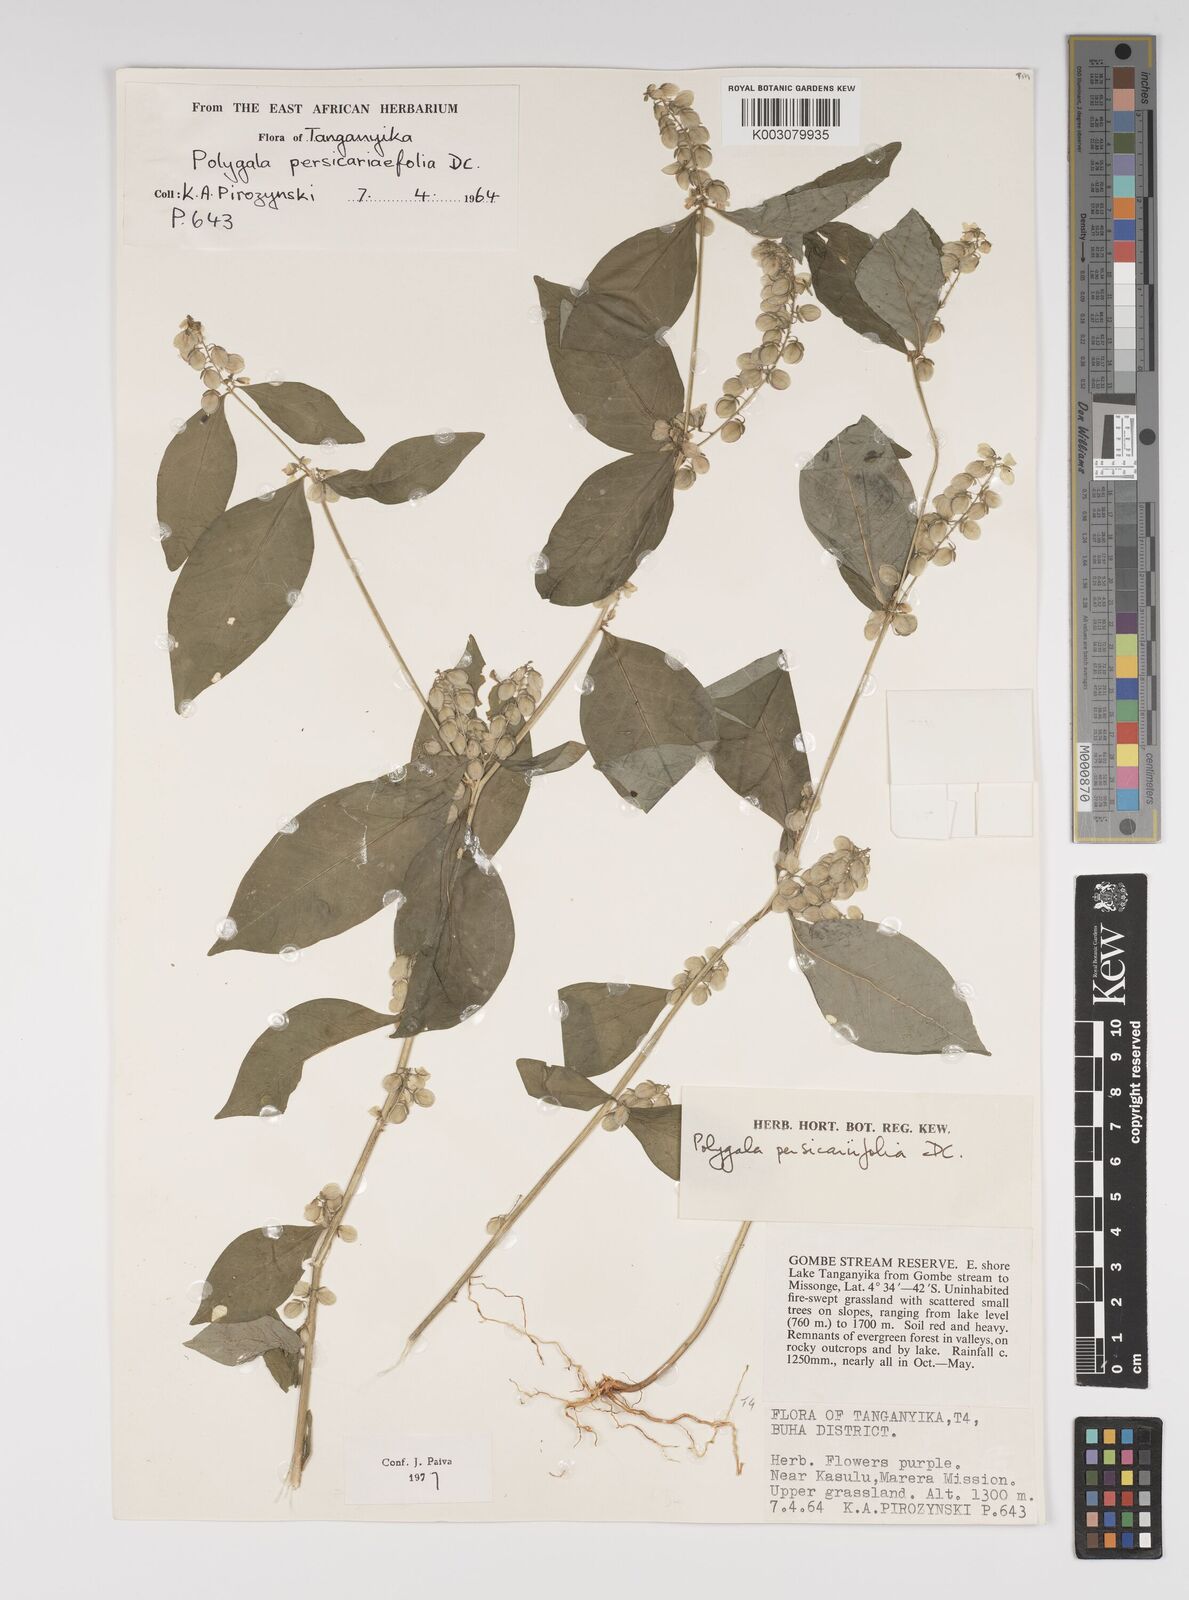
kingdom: Plantae
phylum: Tracheophyta
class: Magnoliopsida
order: Fabales
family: Polygalaceae
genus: Polygala
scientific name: Polygala persicariifolia
